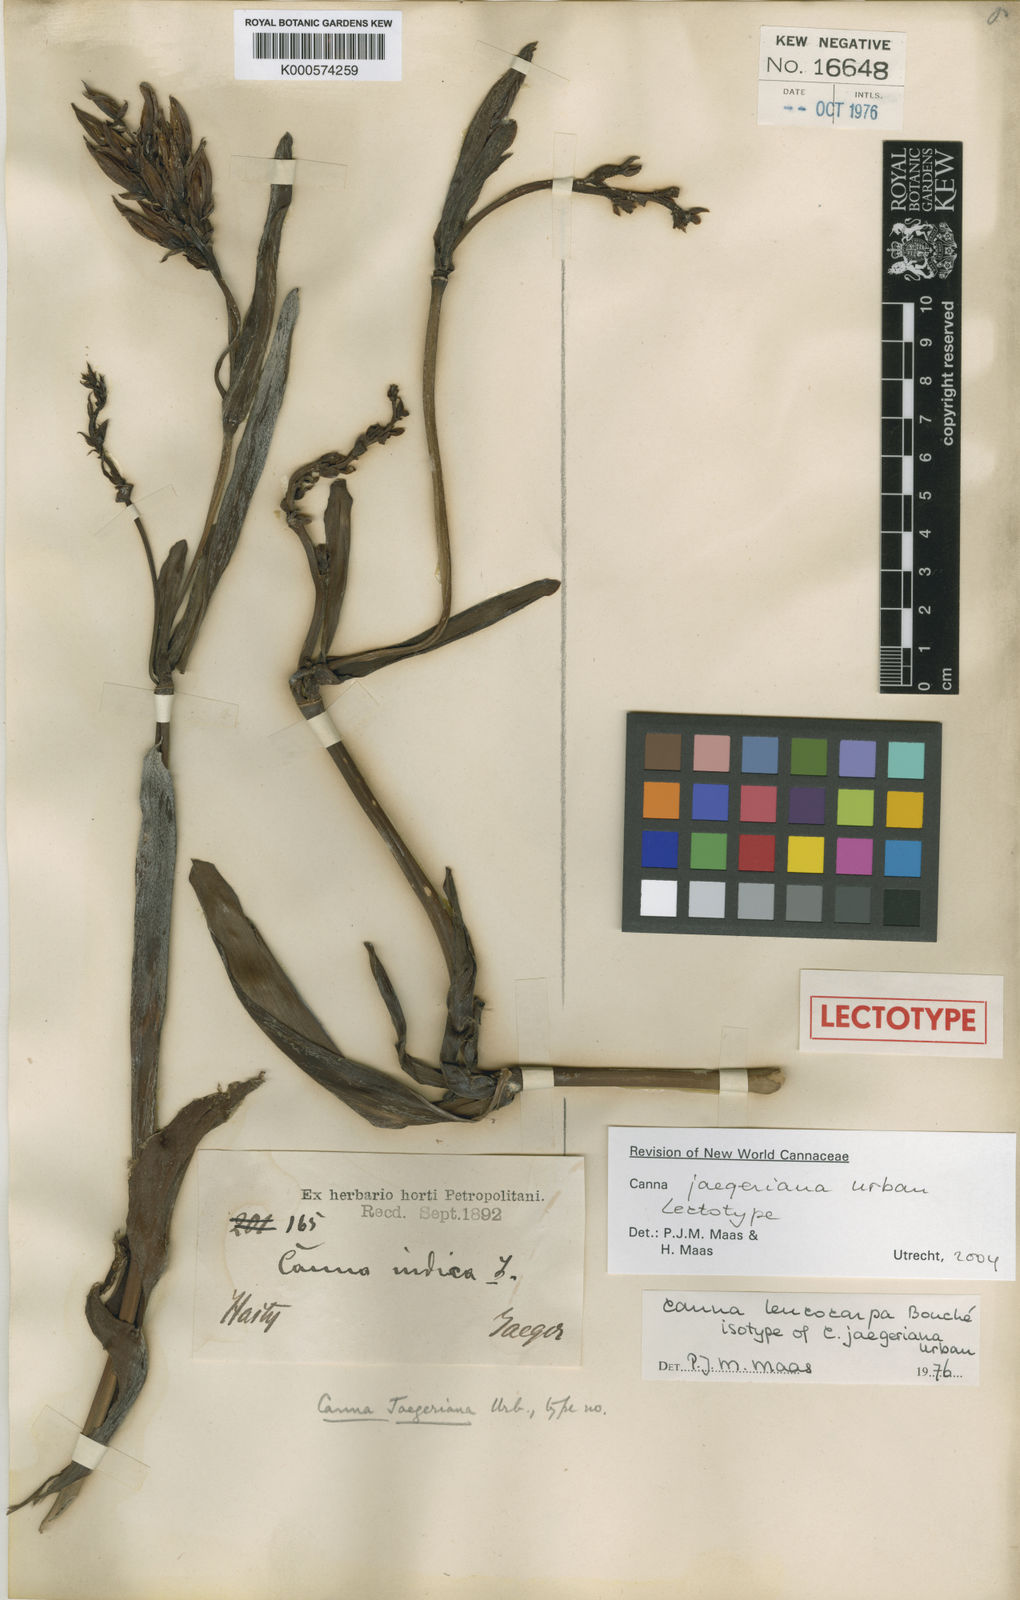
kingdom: Plantae
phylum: Tracheophyta
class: Liliopsida
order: Zingiberales
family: Cannaceae
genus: Canna
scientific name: Canna jaegeriana
